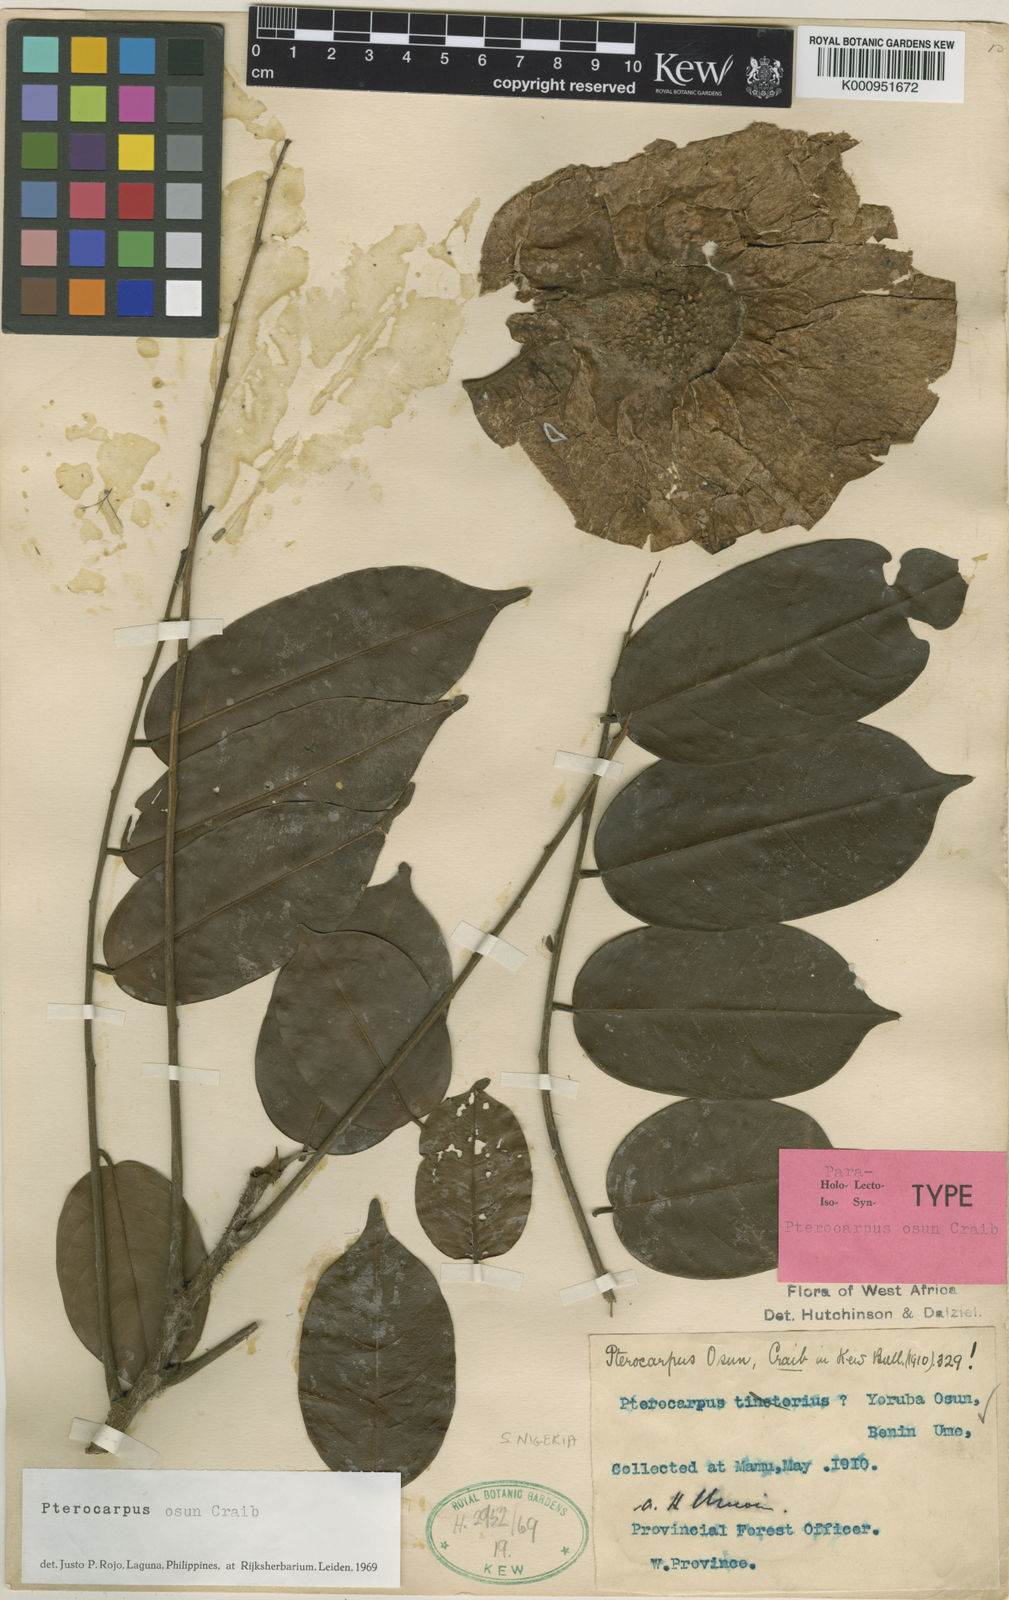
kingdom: Plantae
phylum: Tracheophyta
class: Magnoliopsida
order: Fabales
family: Fabaceae
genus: Pterocarpus
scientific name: Pterocarpus osun
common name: Camwood
